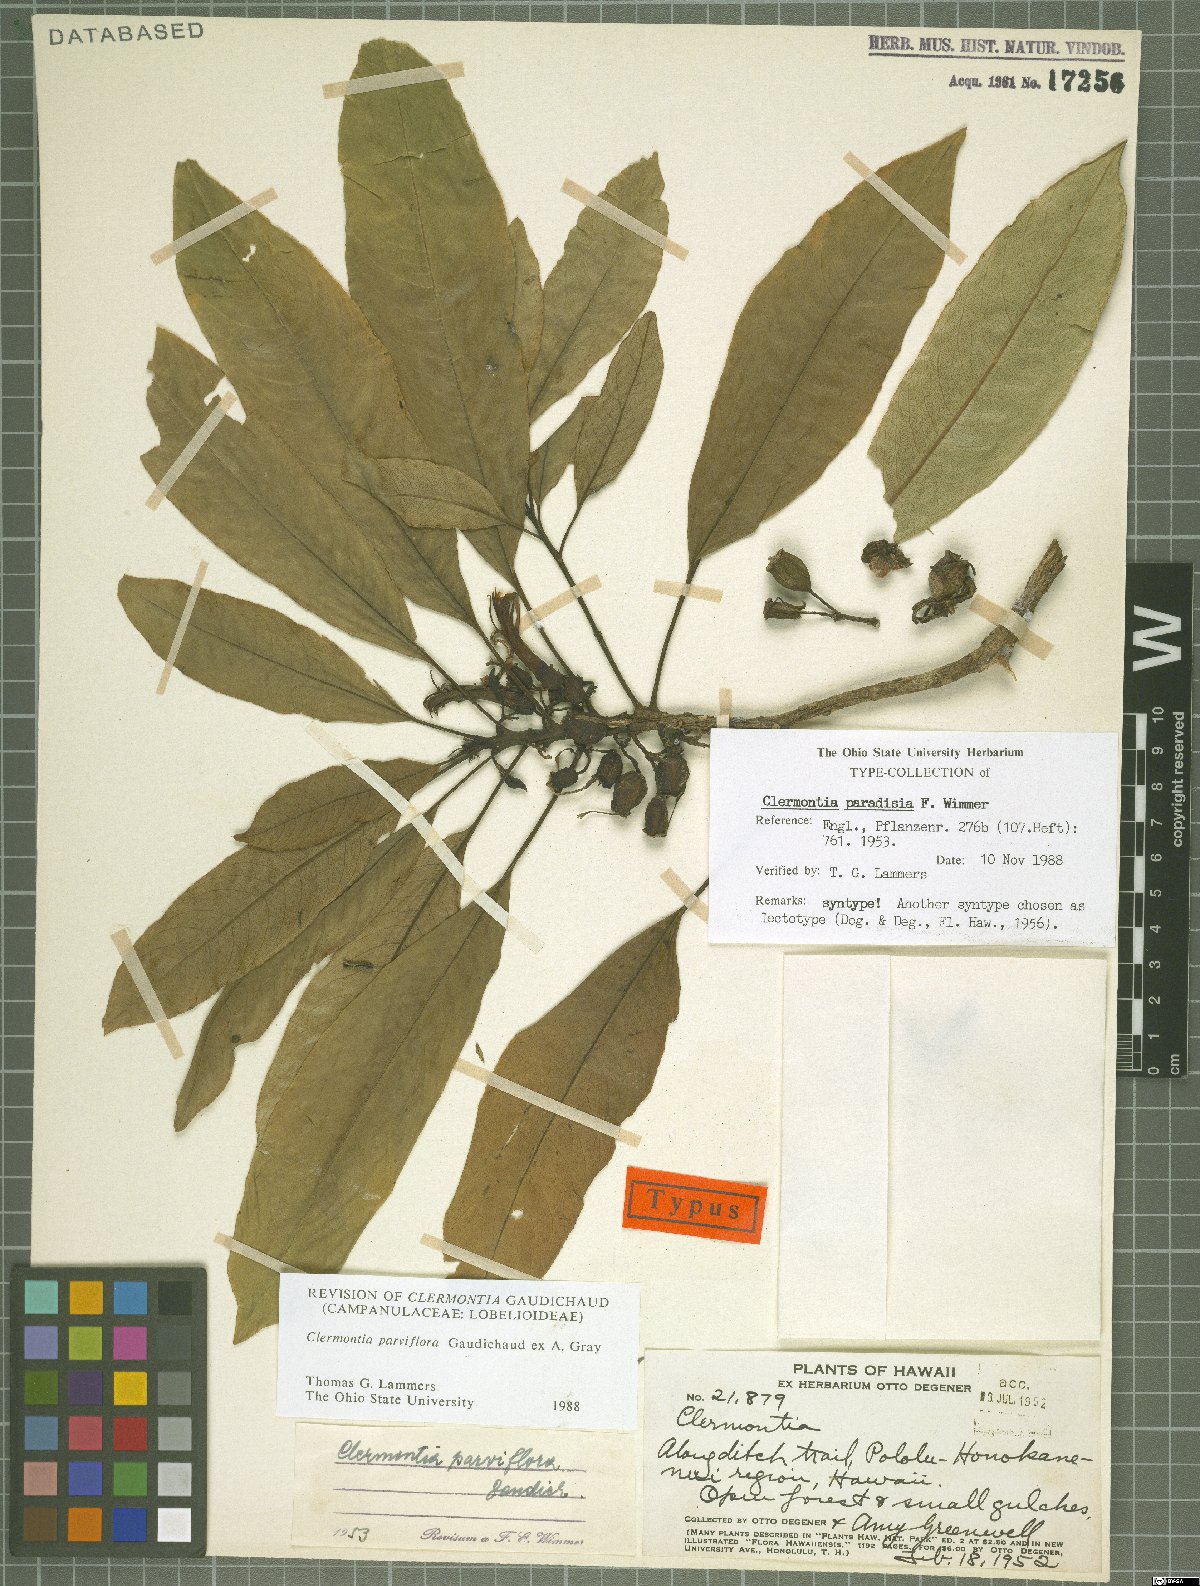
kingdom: Plantae
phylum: Tracheophyta
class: Magnoliopsida
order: Asterales
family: Campanulaceae
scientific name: Campanulaceae
